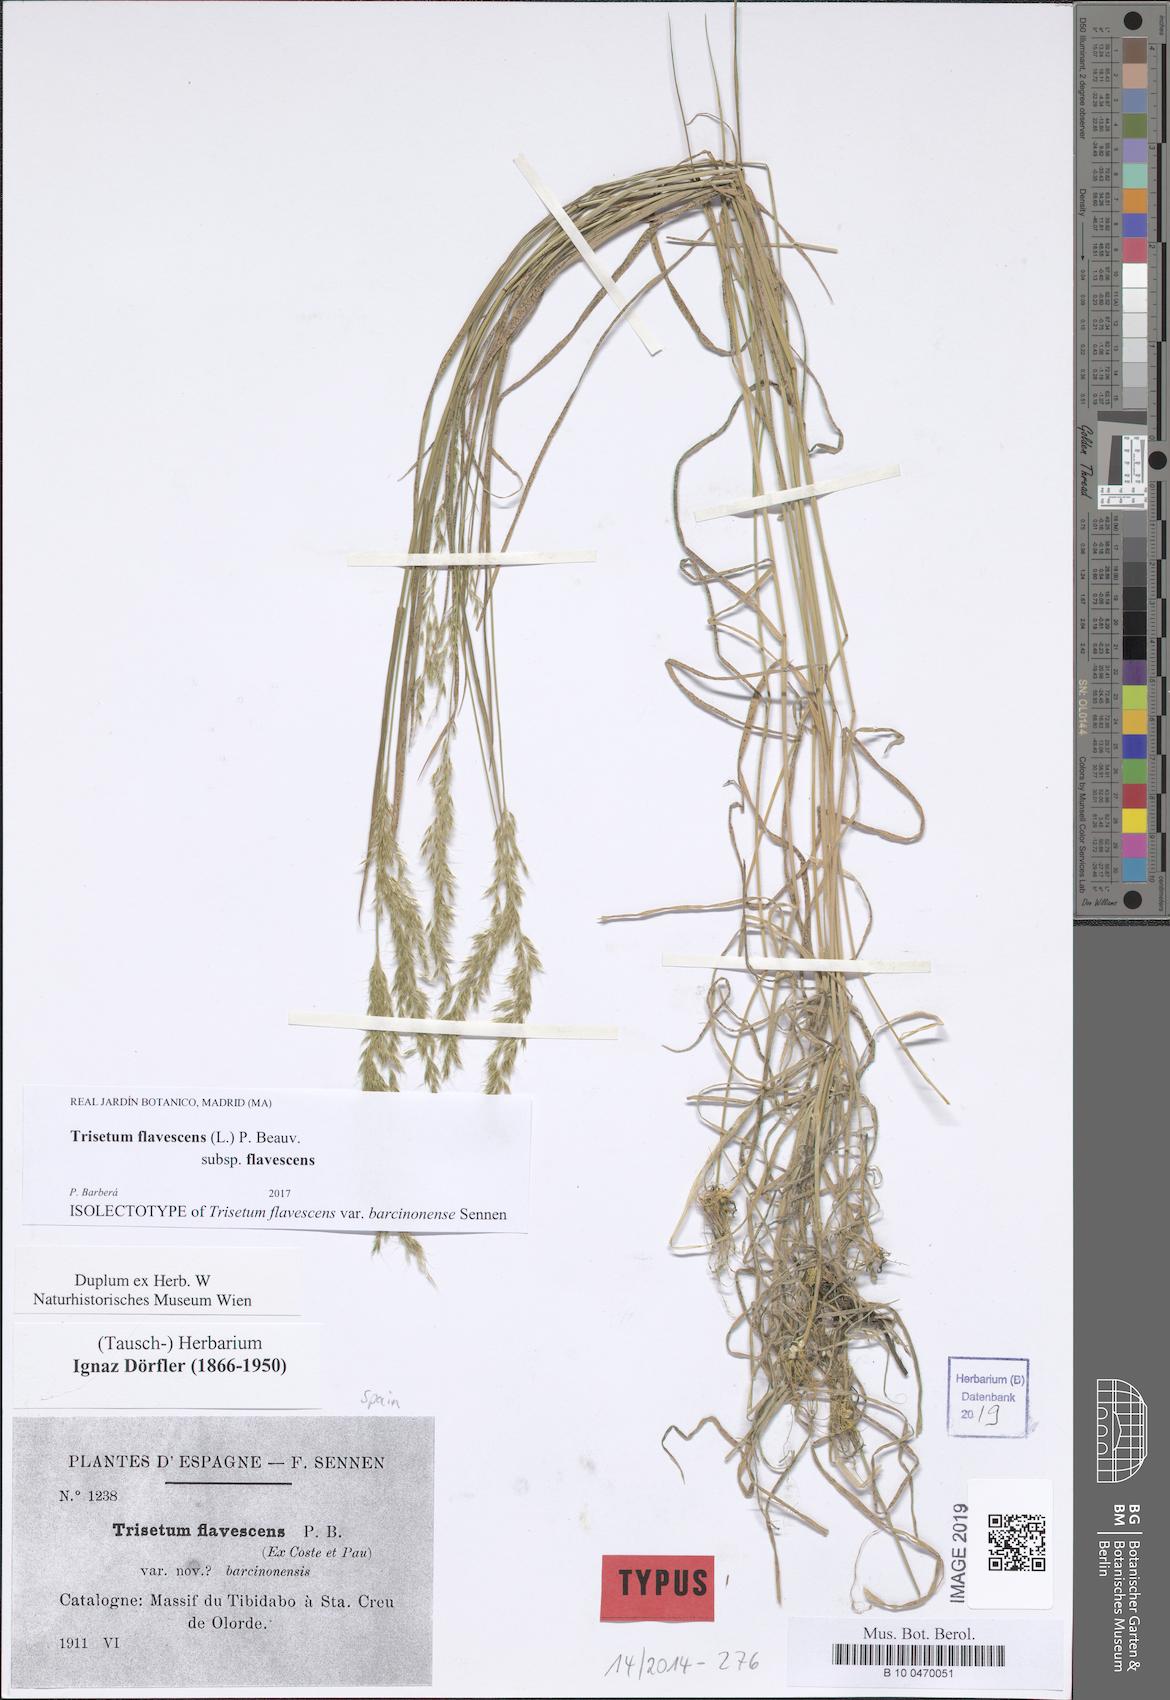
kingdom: Plantae
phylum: Tracheophyta
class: Liliopsida
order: Poales
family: Poaceae
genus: Trisetum
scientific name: Trisetum flavescens
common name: Yellow oat-grass
